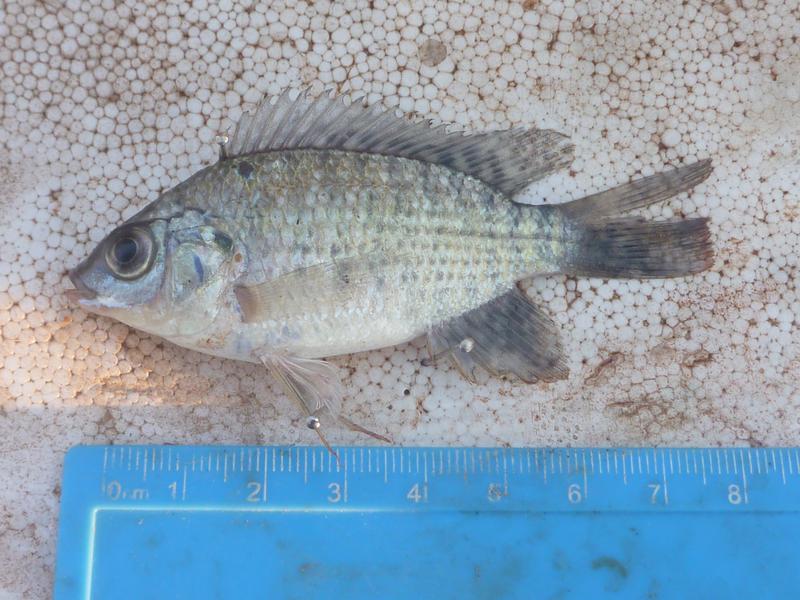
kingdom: Animalia
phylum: Chordata
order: Perciformes
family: Cichlidae
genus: Oreochromis
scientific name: Oreochromis leucostictus
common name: Blue spotted tilapia
